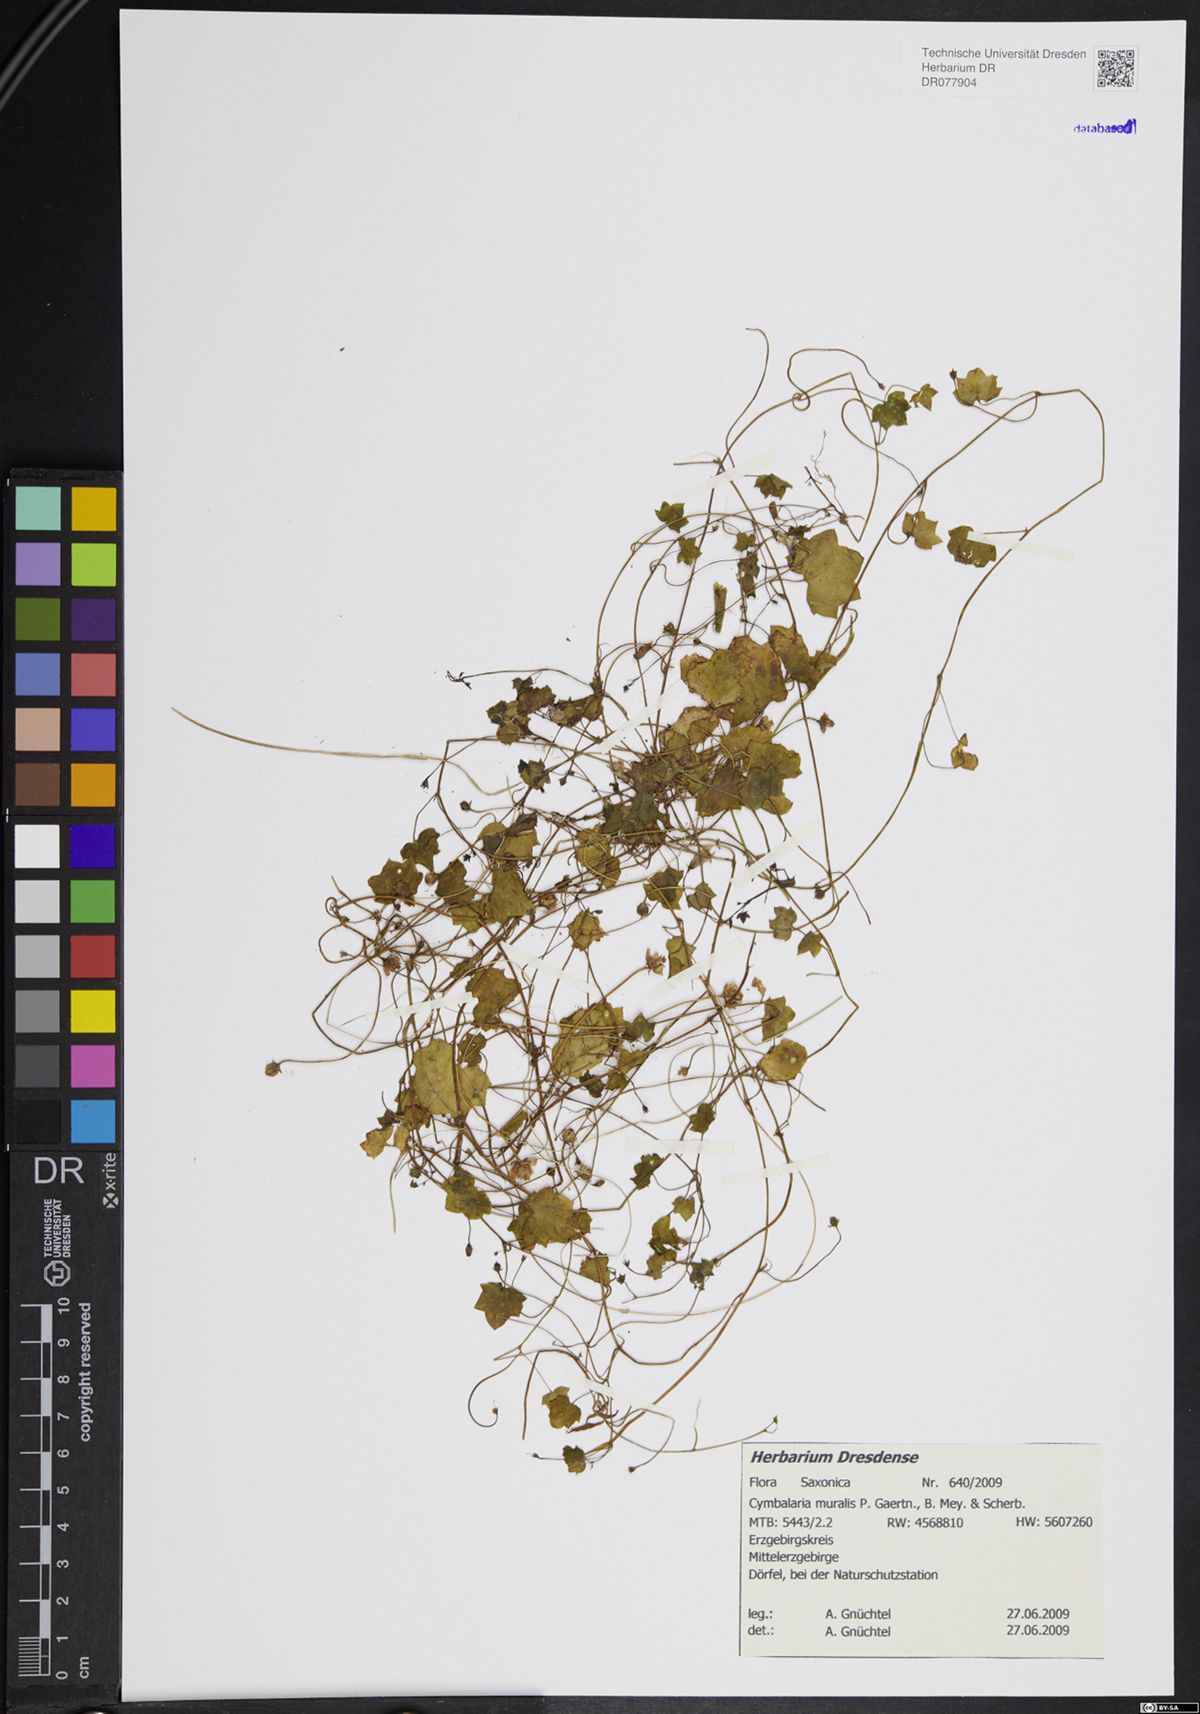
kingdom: Plantae
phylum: Tracheophyta
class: Magnoliopsida
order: Lamiales
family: Plantaginaceae
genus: Cymbalaria
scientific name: Cymbalaria muralis
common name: Ivy-leaved toadflax
